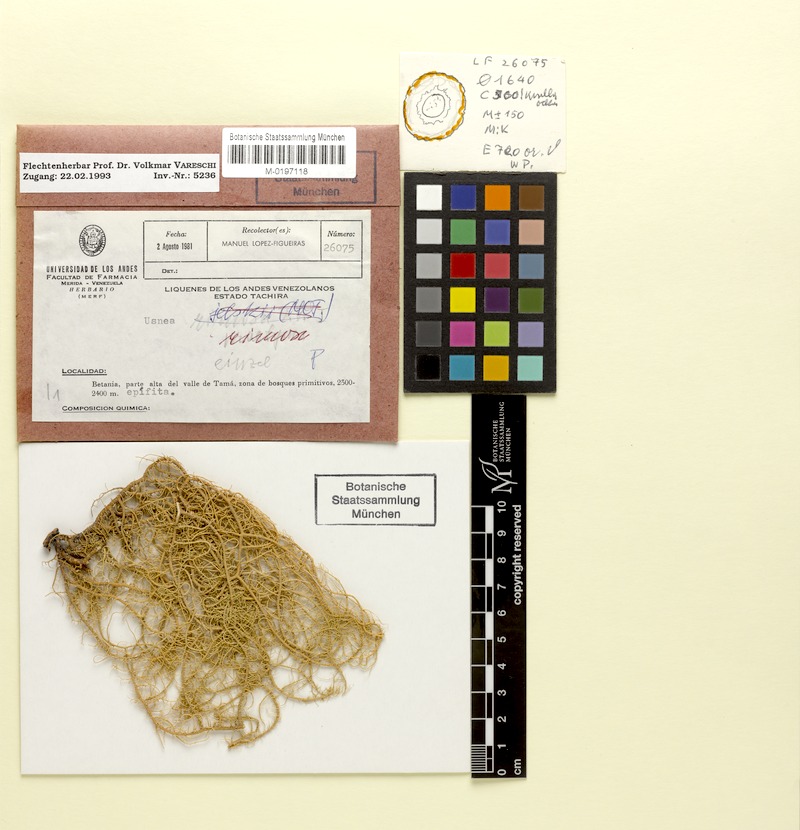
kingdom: Fungi
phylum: Ascomycota
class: Lecanoromycetes
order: Lecanorales
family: Parmeliaceae
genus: Usnea
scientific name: Usnea
